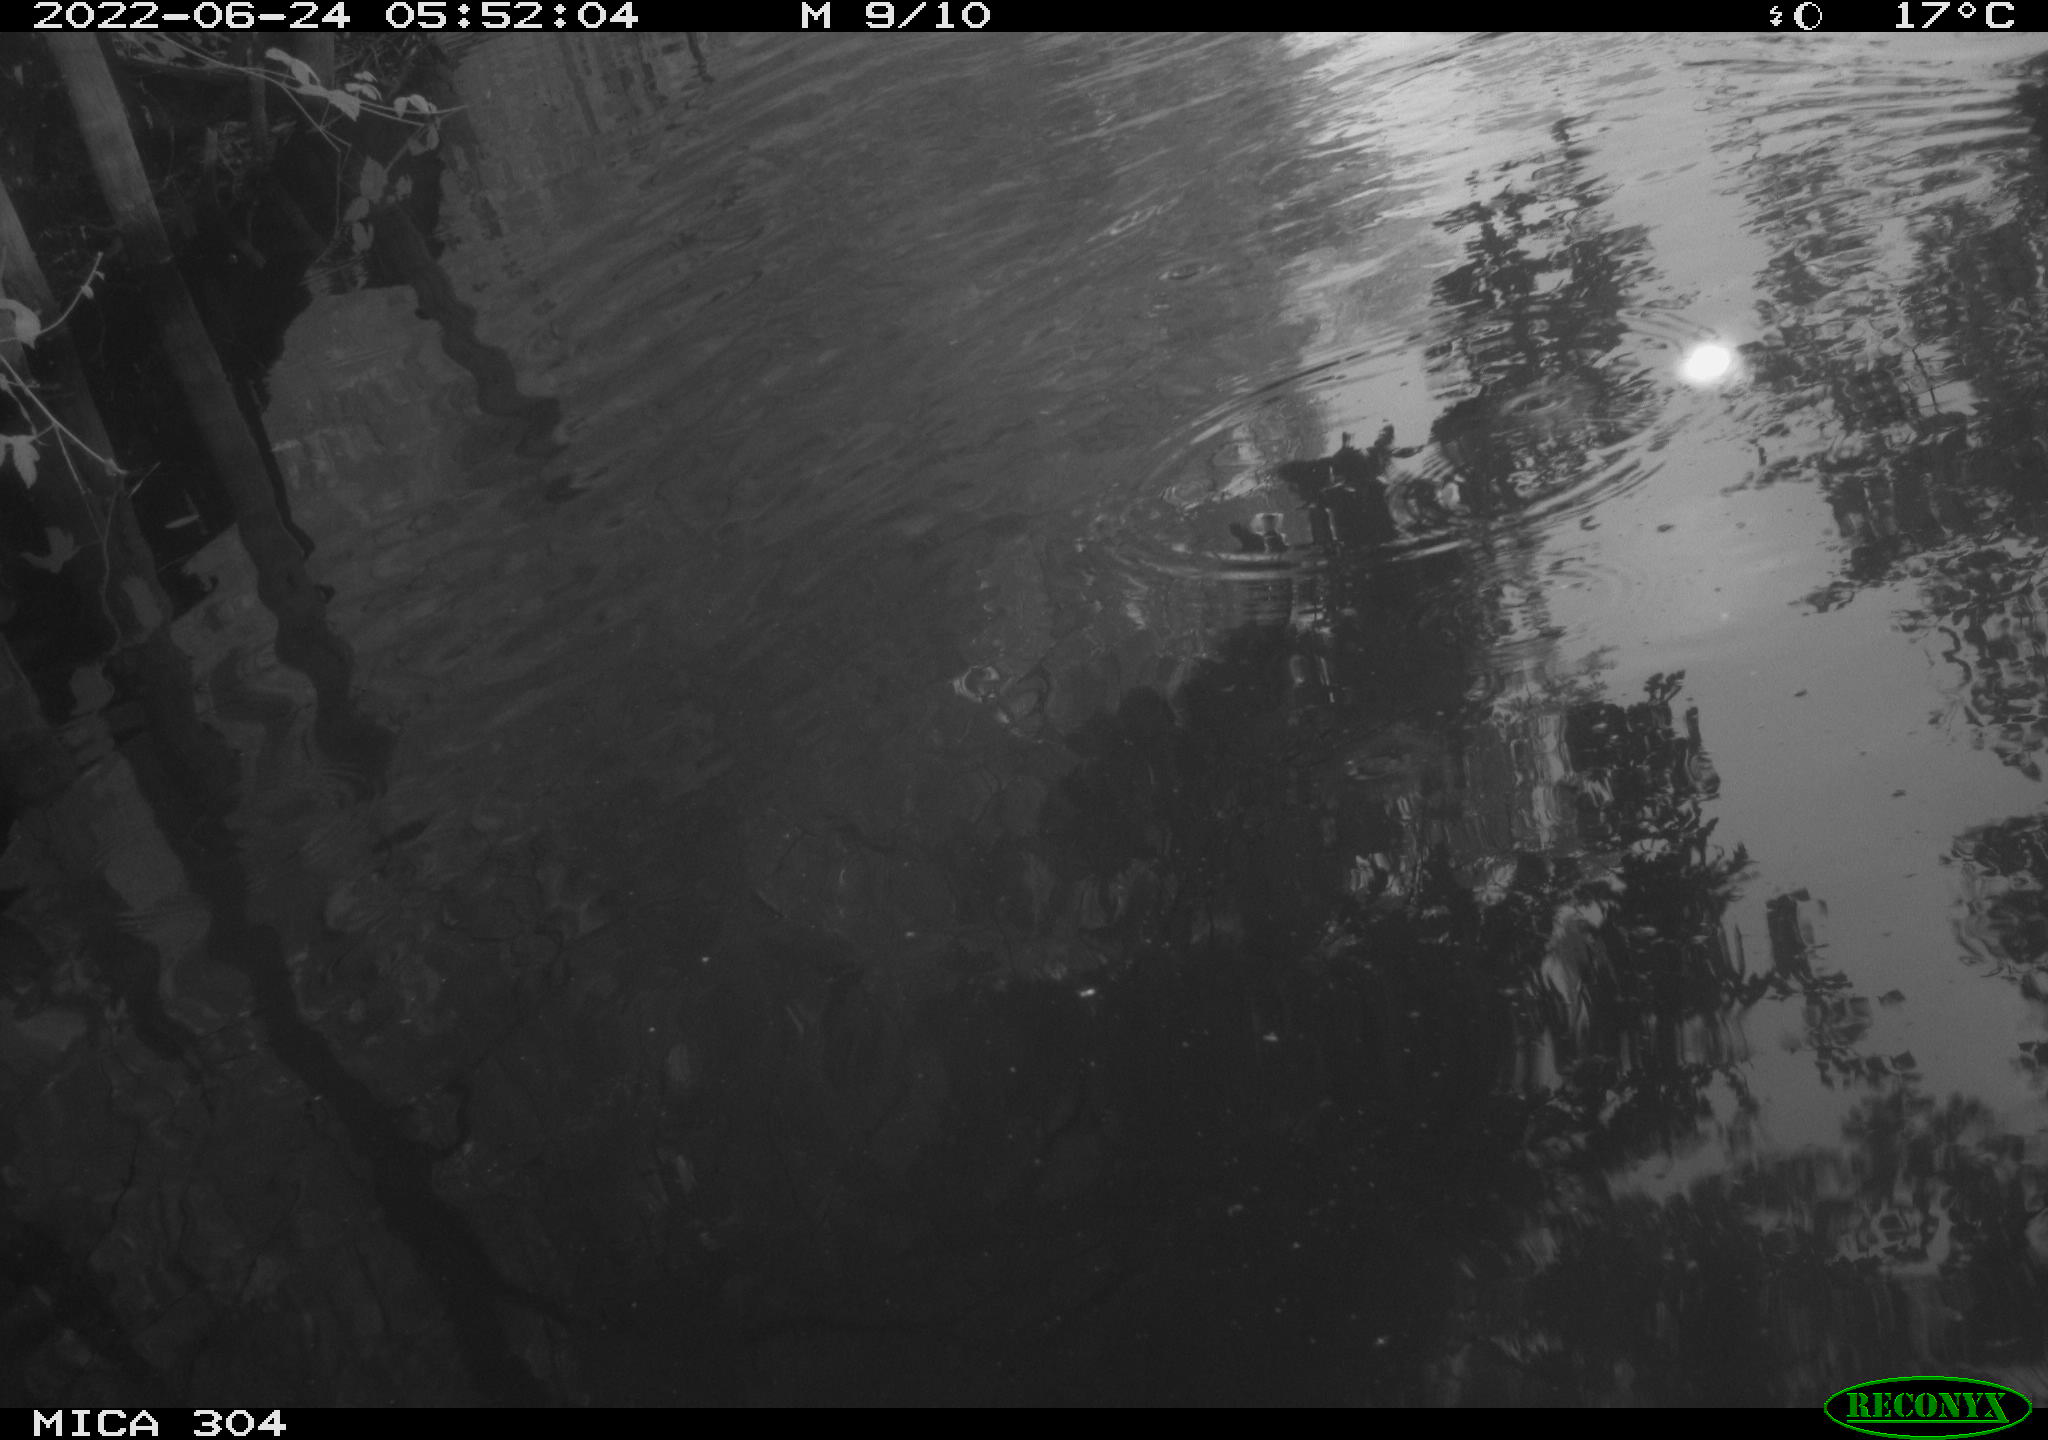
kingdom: Animalia
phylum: Chordata
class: Aves
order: Gruiformes
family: Rallidae
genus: Fulica
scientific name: Fulica atra
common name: Eurasian coot
